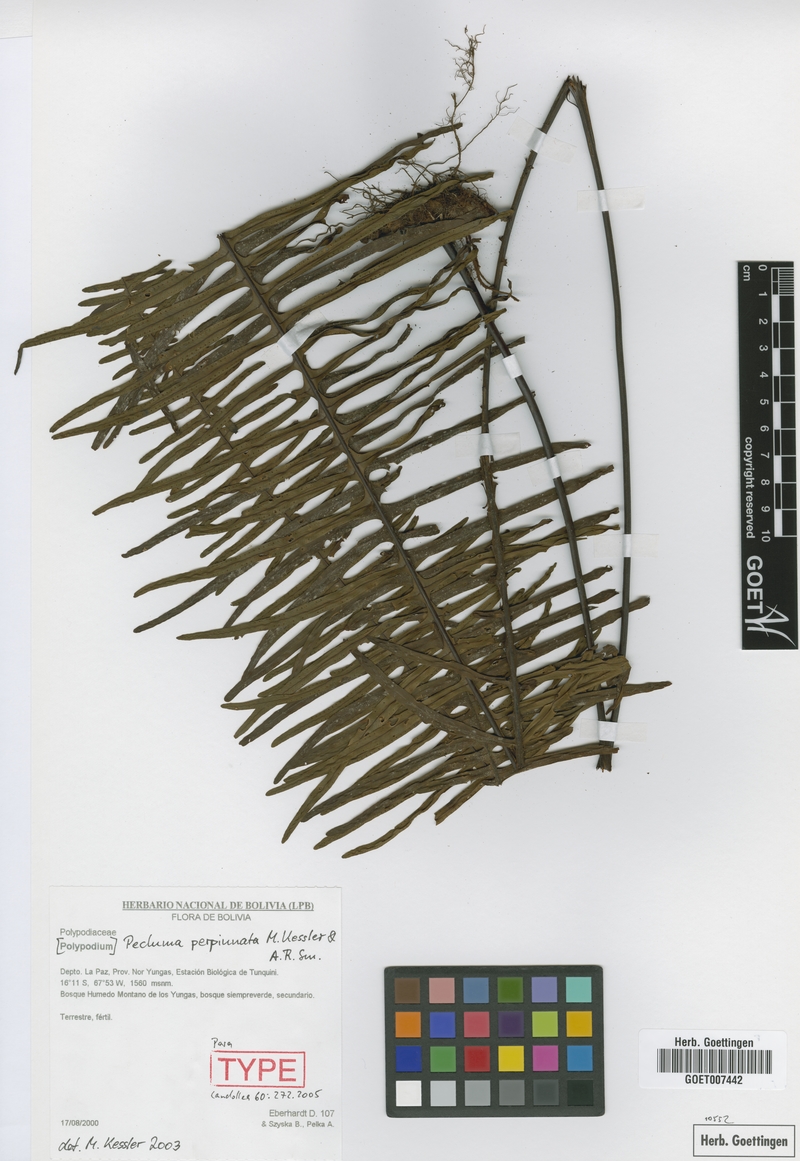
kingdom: Plantae
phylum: Tracheophyta
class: Polypodiopsida
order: Polypodiales
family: Polypodiaceae
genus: Pecluma
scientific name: Pecluma perpinnata
